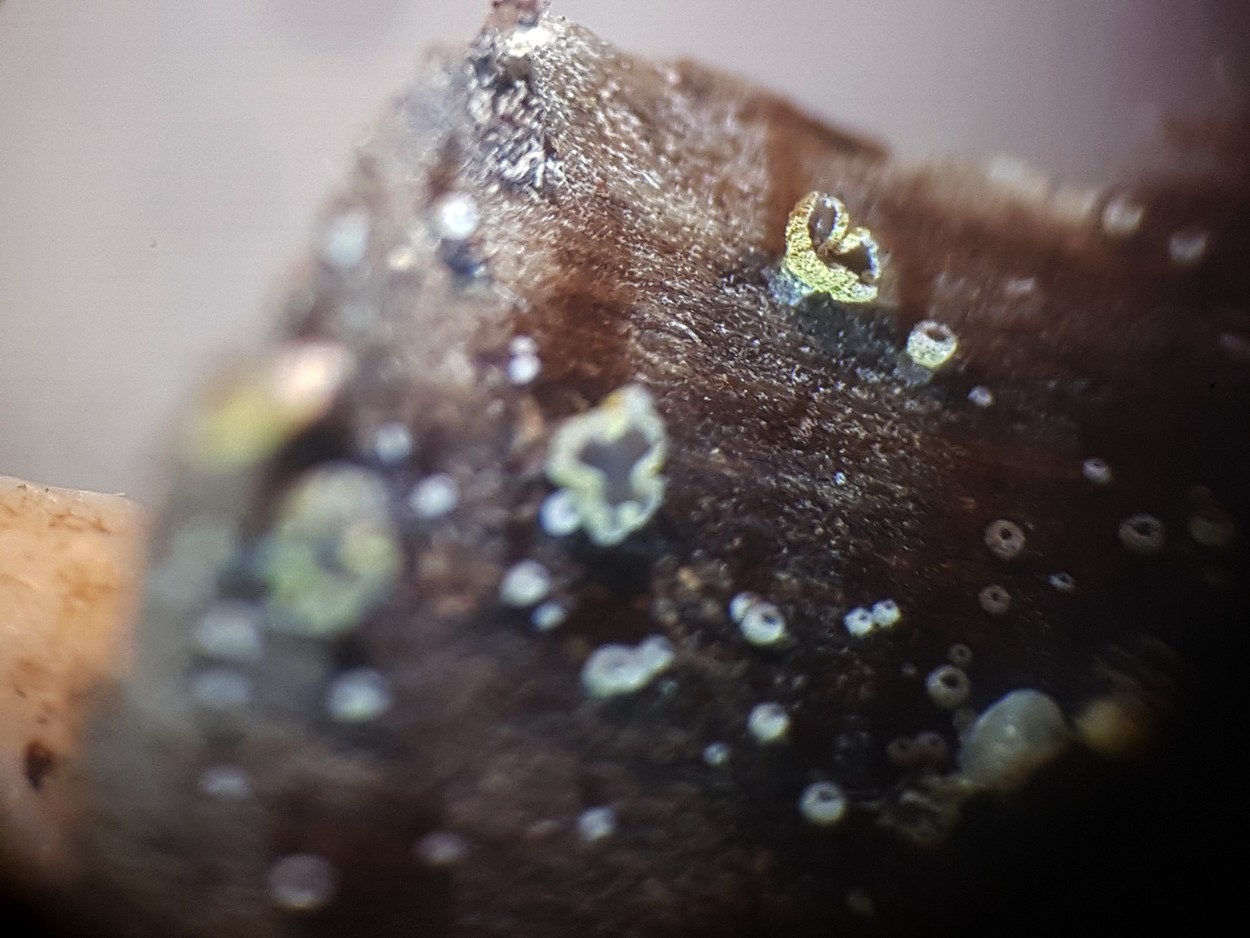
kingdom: Fungi
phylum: Ascomycota
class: Leotiomycetes
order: Helotiales
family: Hyphodiscaceae
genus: Hyphodiscus
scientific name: Hyphodiscus
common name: sirskive
